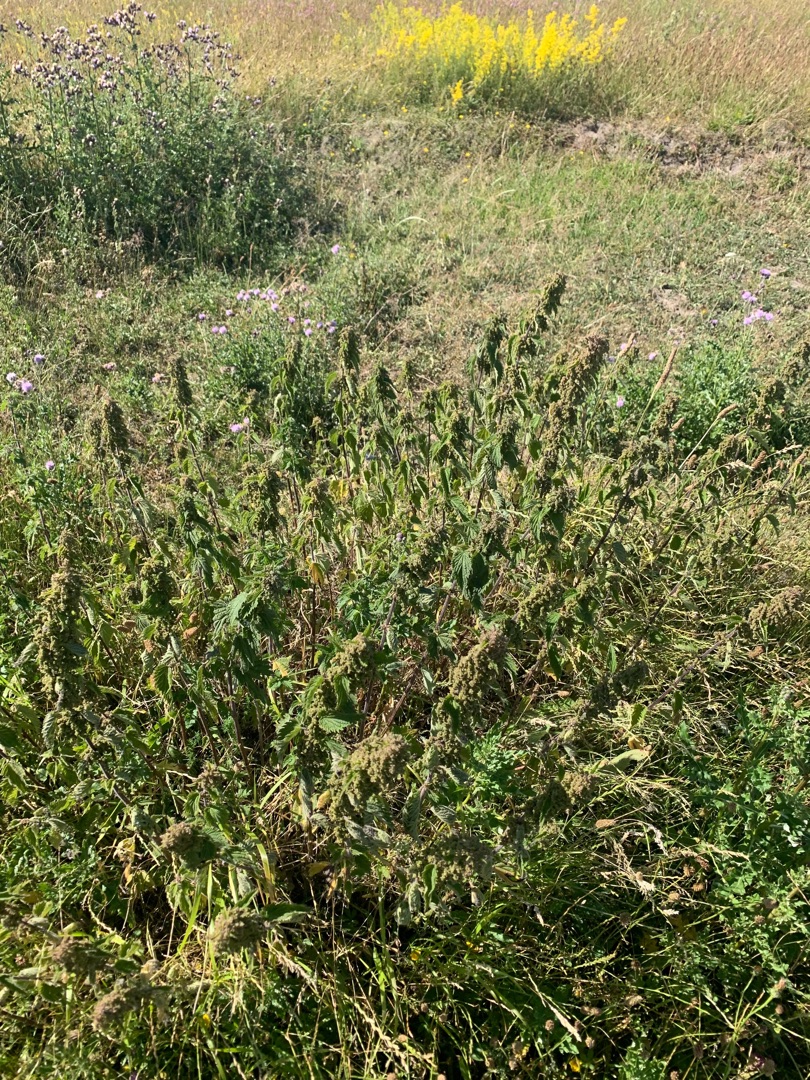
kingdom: Plantae
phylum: Tracheophyta
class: Magnoliopsida
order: Rosales
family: Urticaceae
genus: Urtica
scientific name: Urtica dioica
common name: Stor nælde
